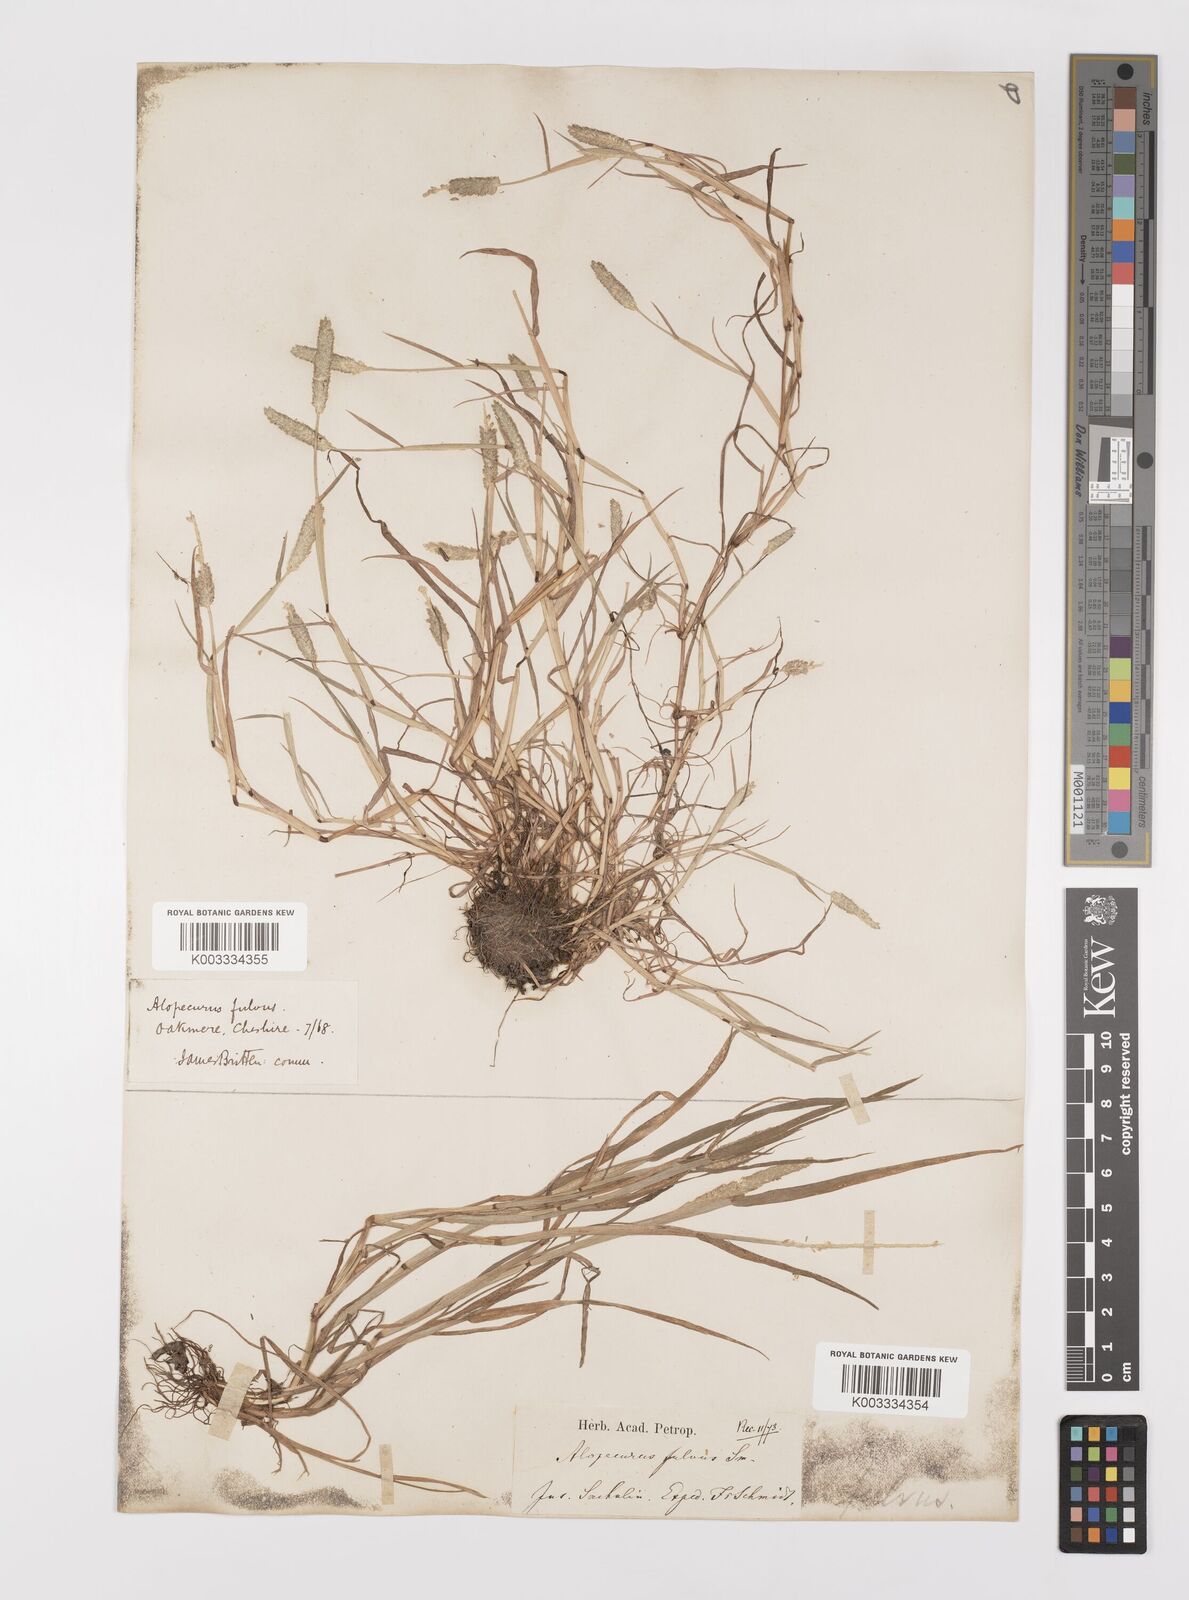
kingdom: Plantae
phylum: Tracheophyta
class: Liliopsida
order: Poales
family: Poaceae
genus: Alopecurus
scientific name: Alopecurus aequalis
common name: Orange foxtail
